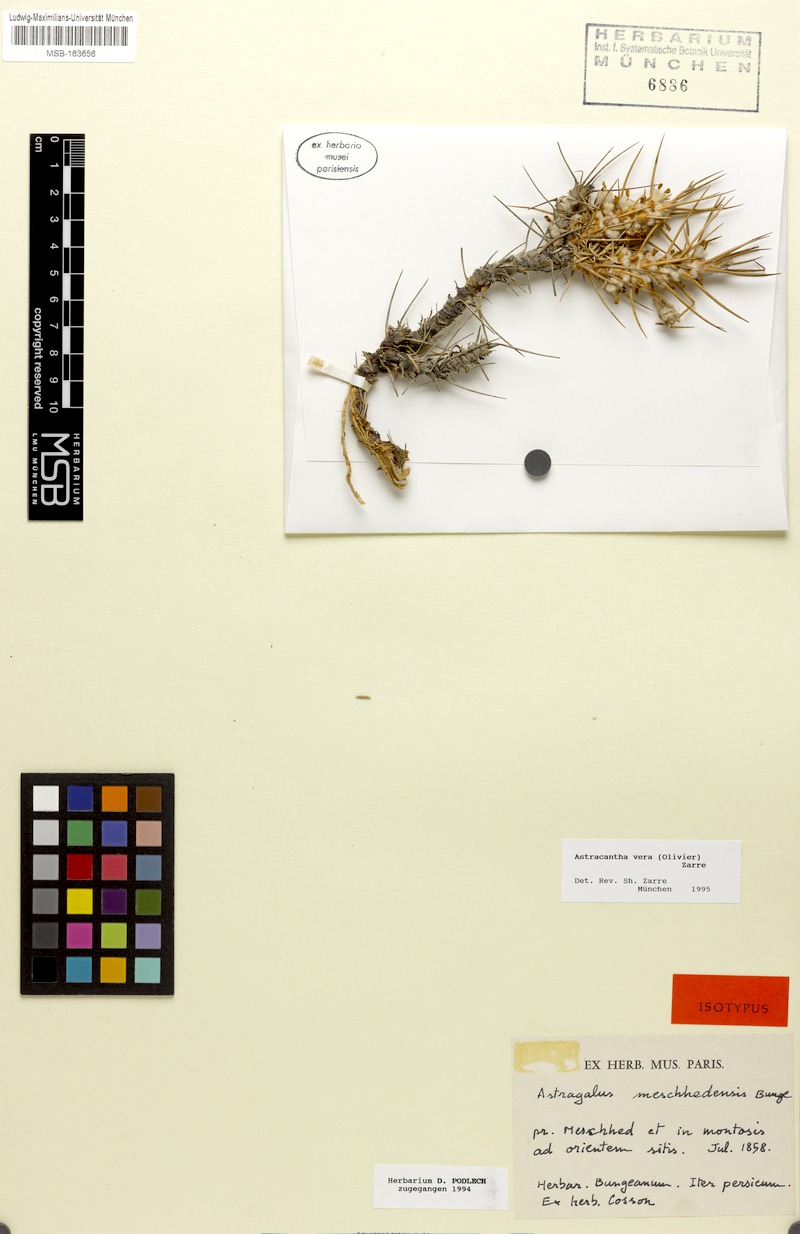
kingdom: Plantae
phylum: Tracheophyta
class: Magnoliopsida
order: Fabales
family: Fabaceae
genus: Astragalus
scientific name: Astragalus verus
